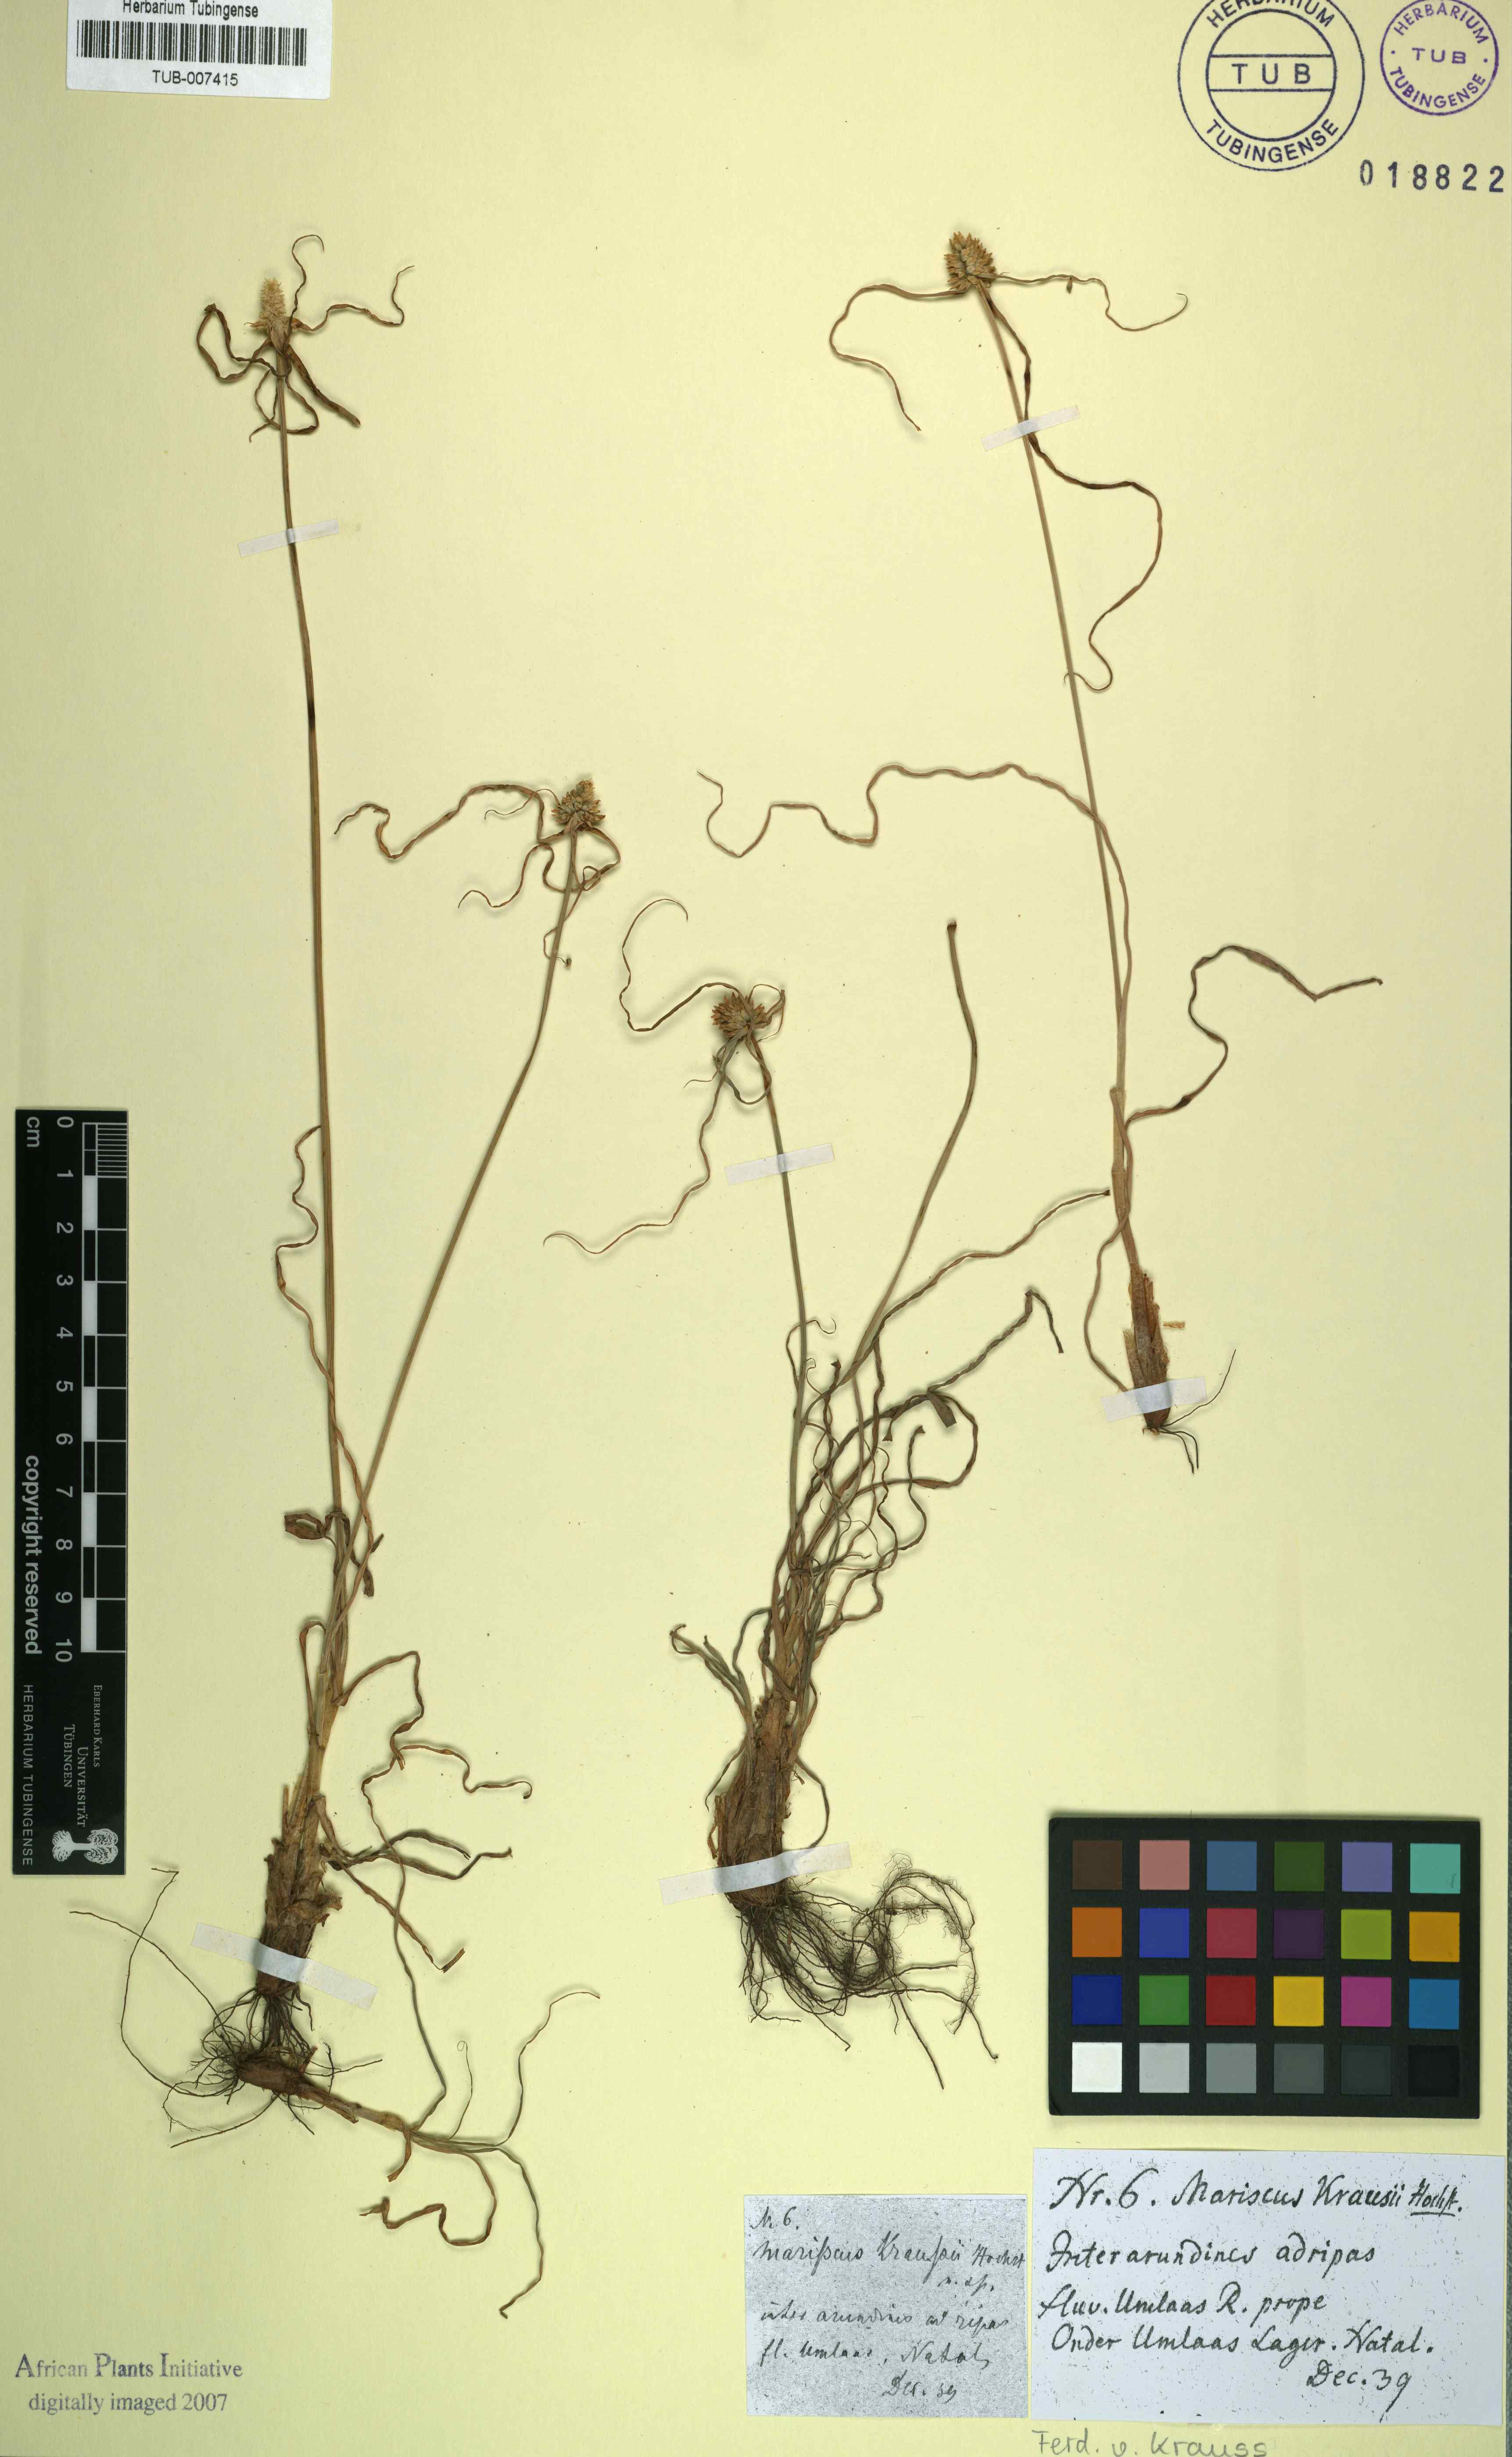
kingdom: Plantae
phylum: Tracheophyta
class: Liliopsida
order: Poales
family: Cyperaceae
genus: Cyperus
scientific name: Cyperus dubius
